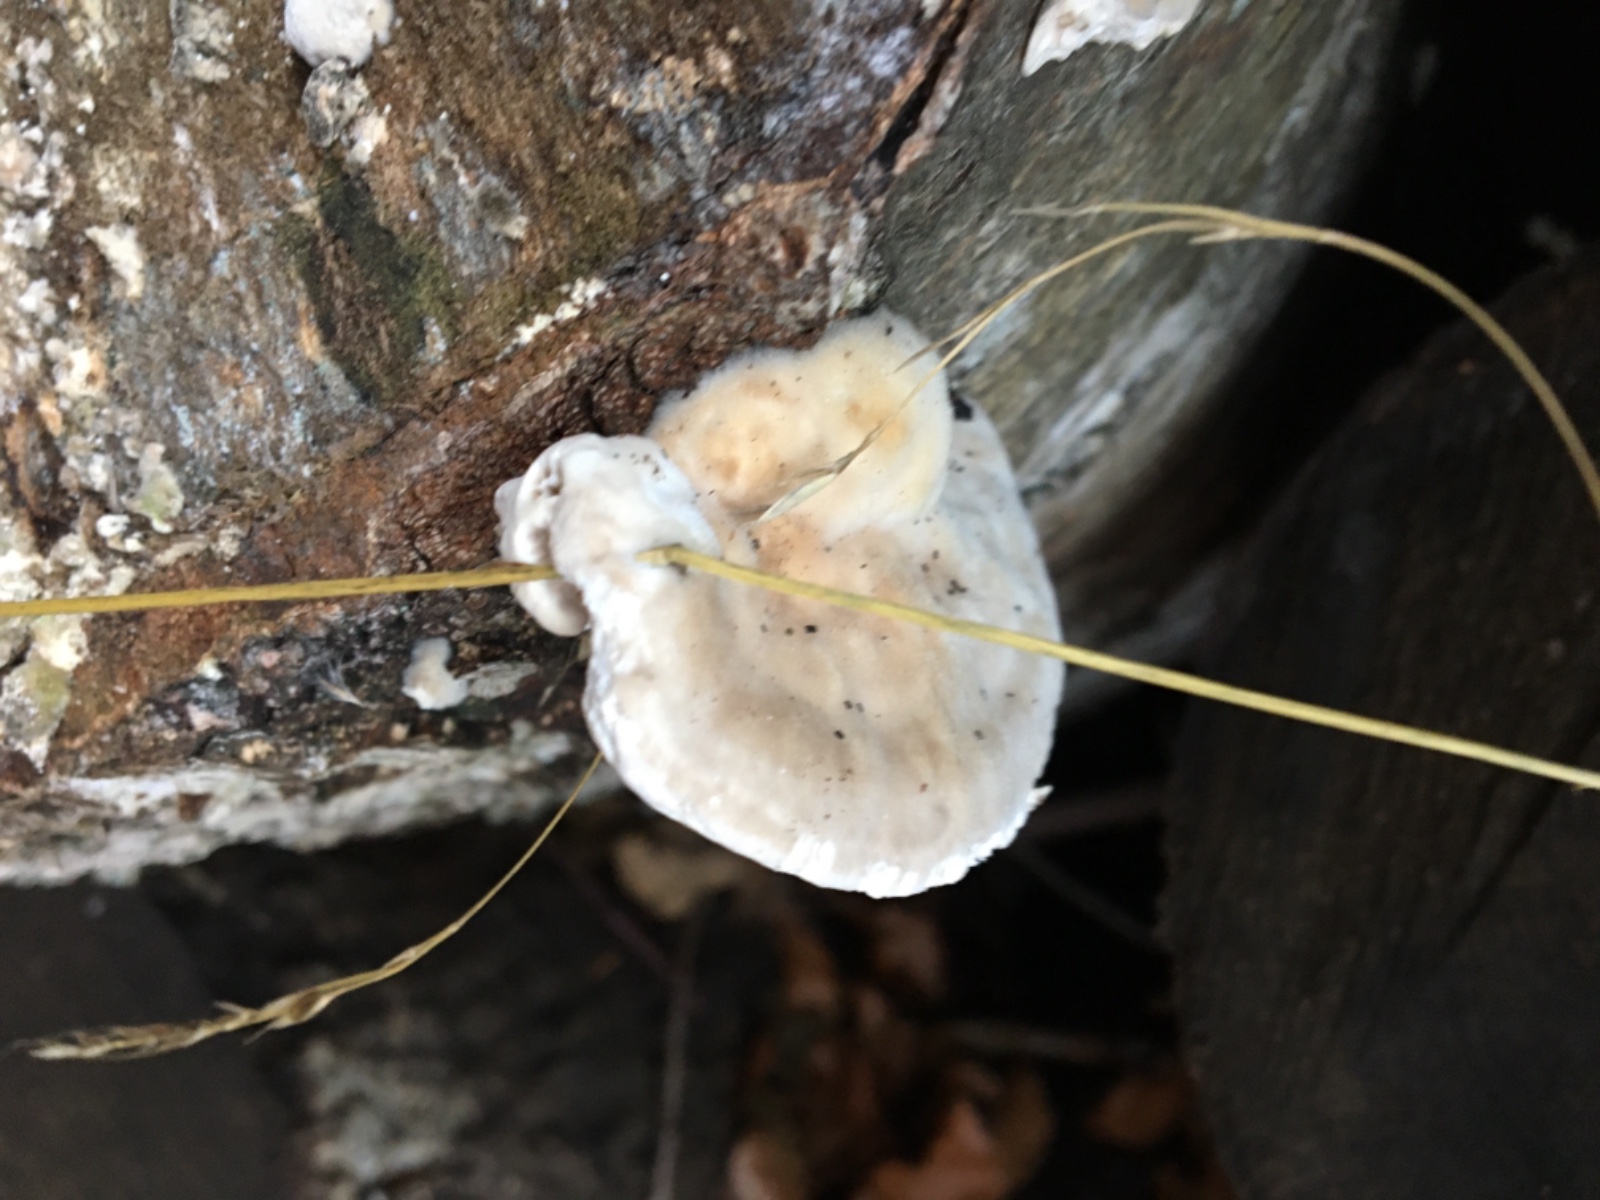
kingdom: Fungi
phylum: Basidiomycota
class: Agaricomycetes
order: Polyporales
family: Polyporaceae
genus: Lenzites
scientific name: Lenzites betulinus
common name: birke-læderporesvamp
